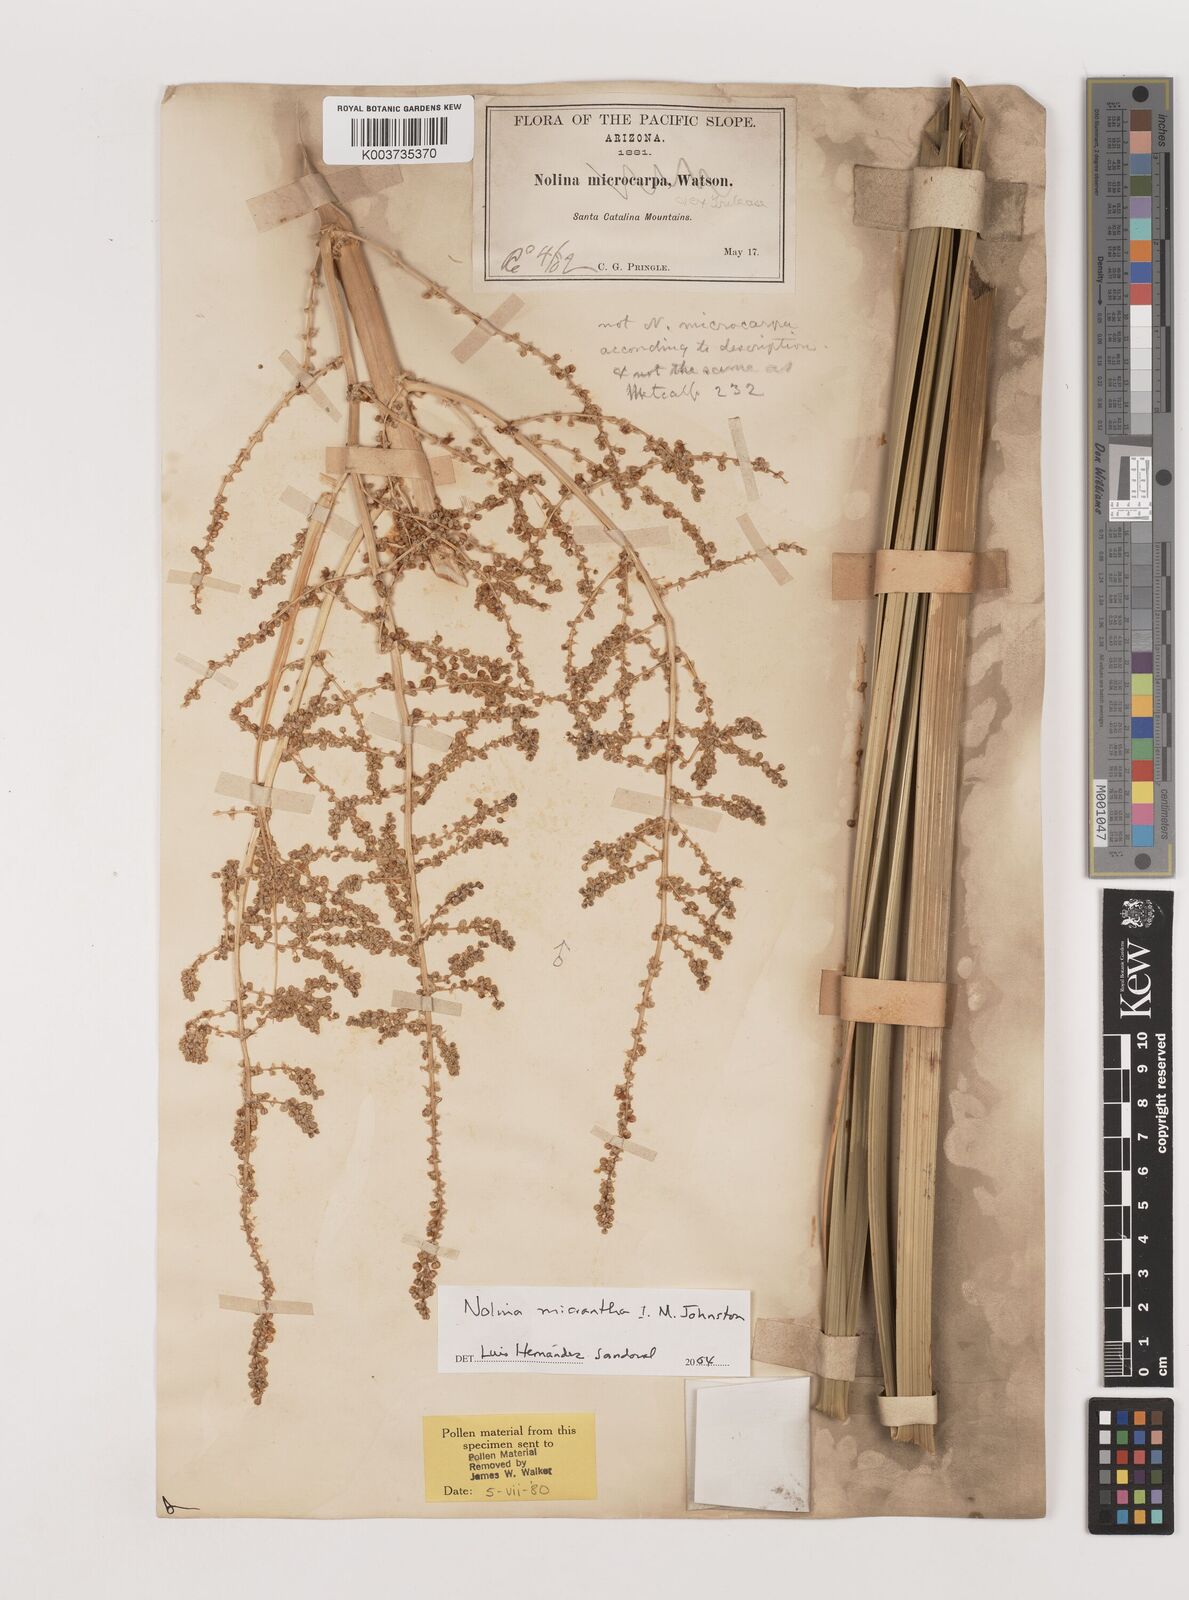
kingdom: Plantae
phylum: Tracheophyta
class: Liliopsida
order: Asparagales
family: Asparagaceae
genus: Nolina
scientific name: Nolina micrantha
